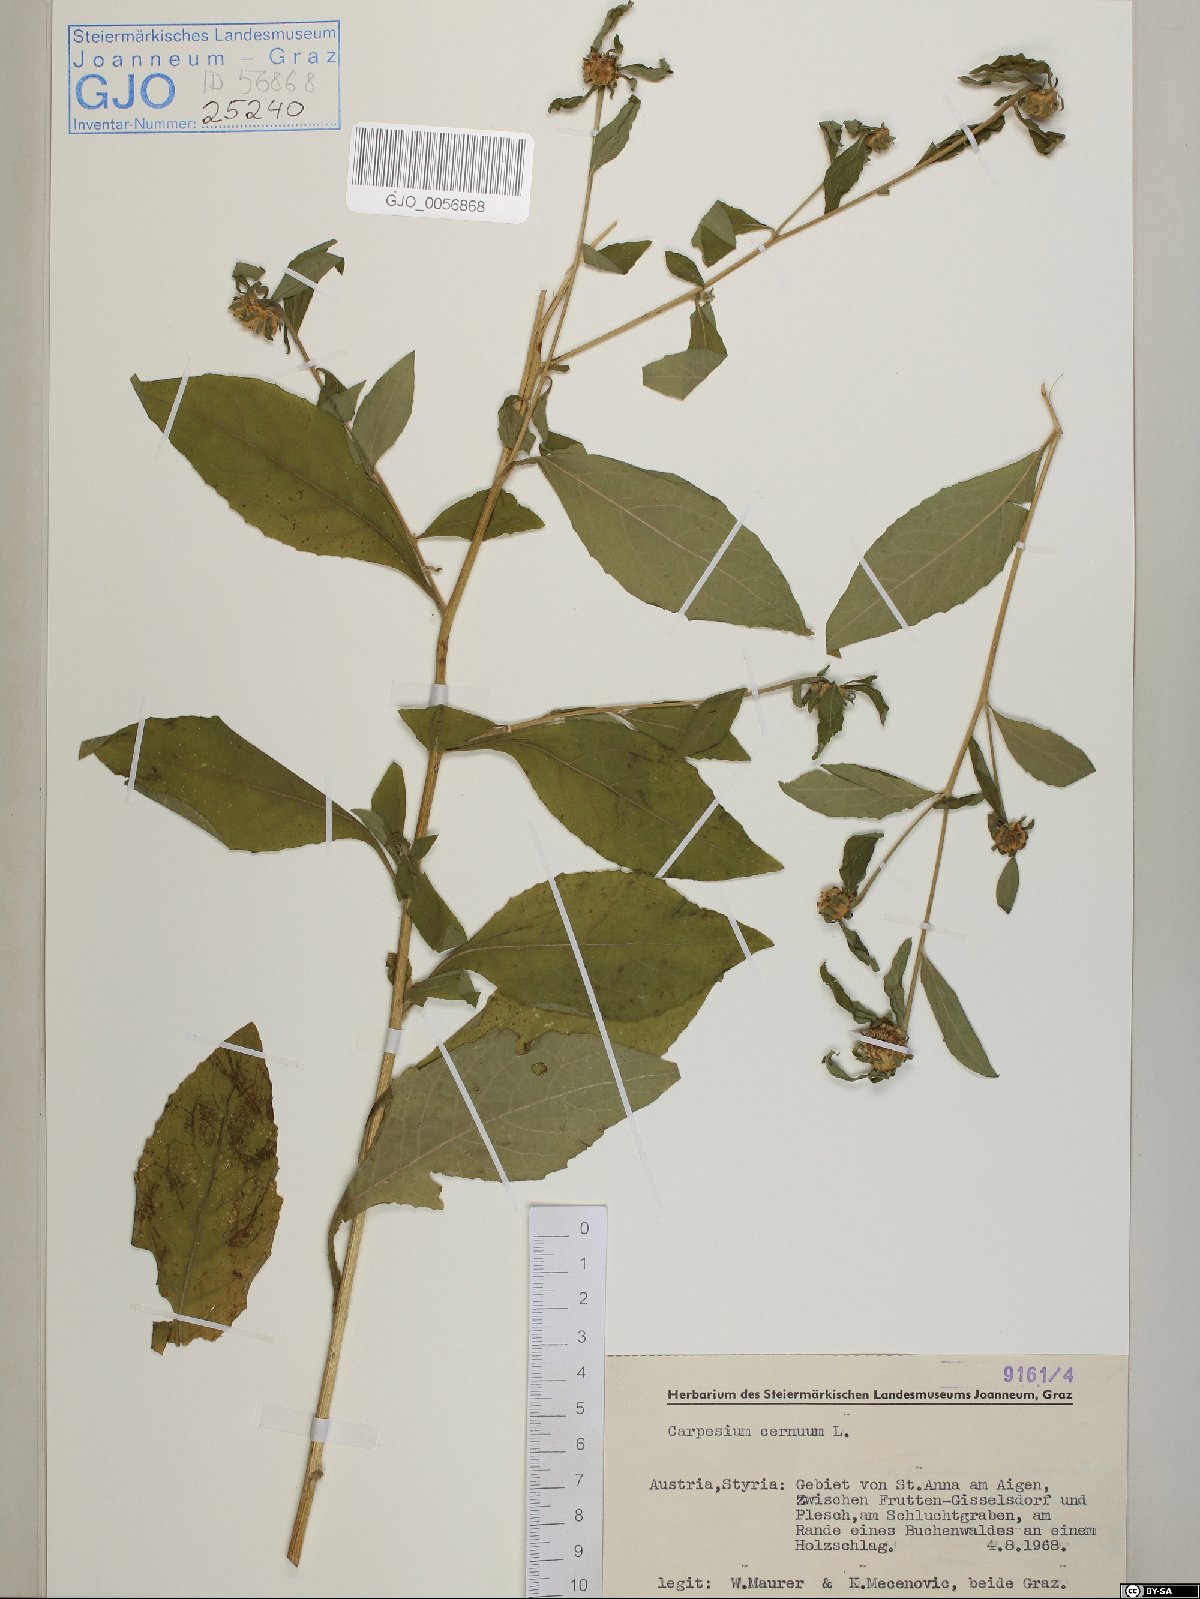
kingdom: Plantae
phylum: Tracheophyta
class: Magnoliopsida
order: Asterales
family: Asteraceae
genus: Carpesium
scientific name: Carpesium cernuum
